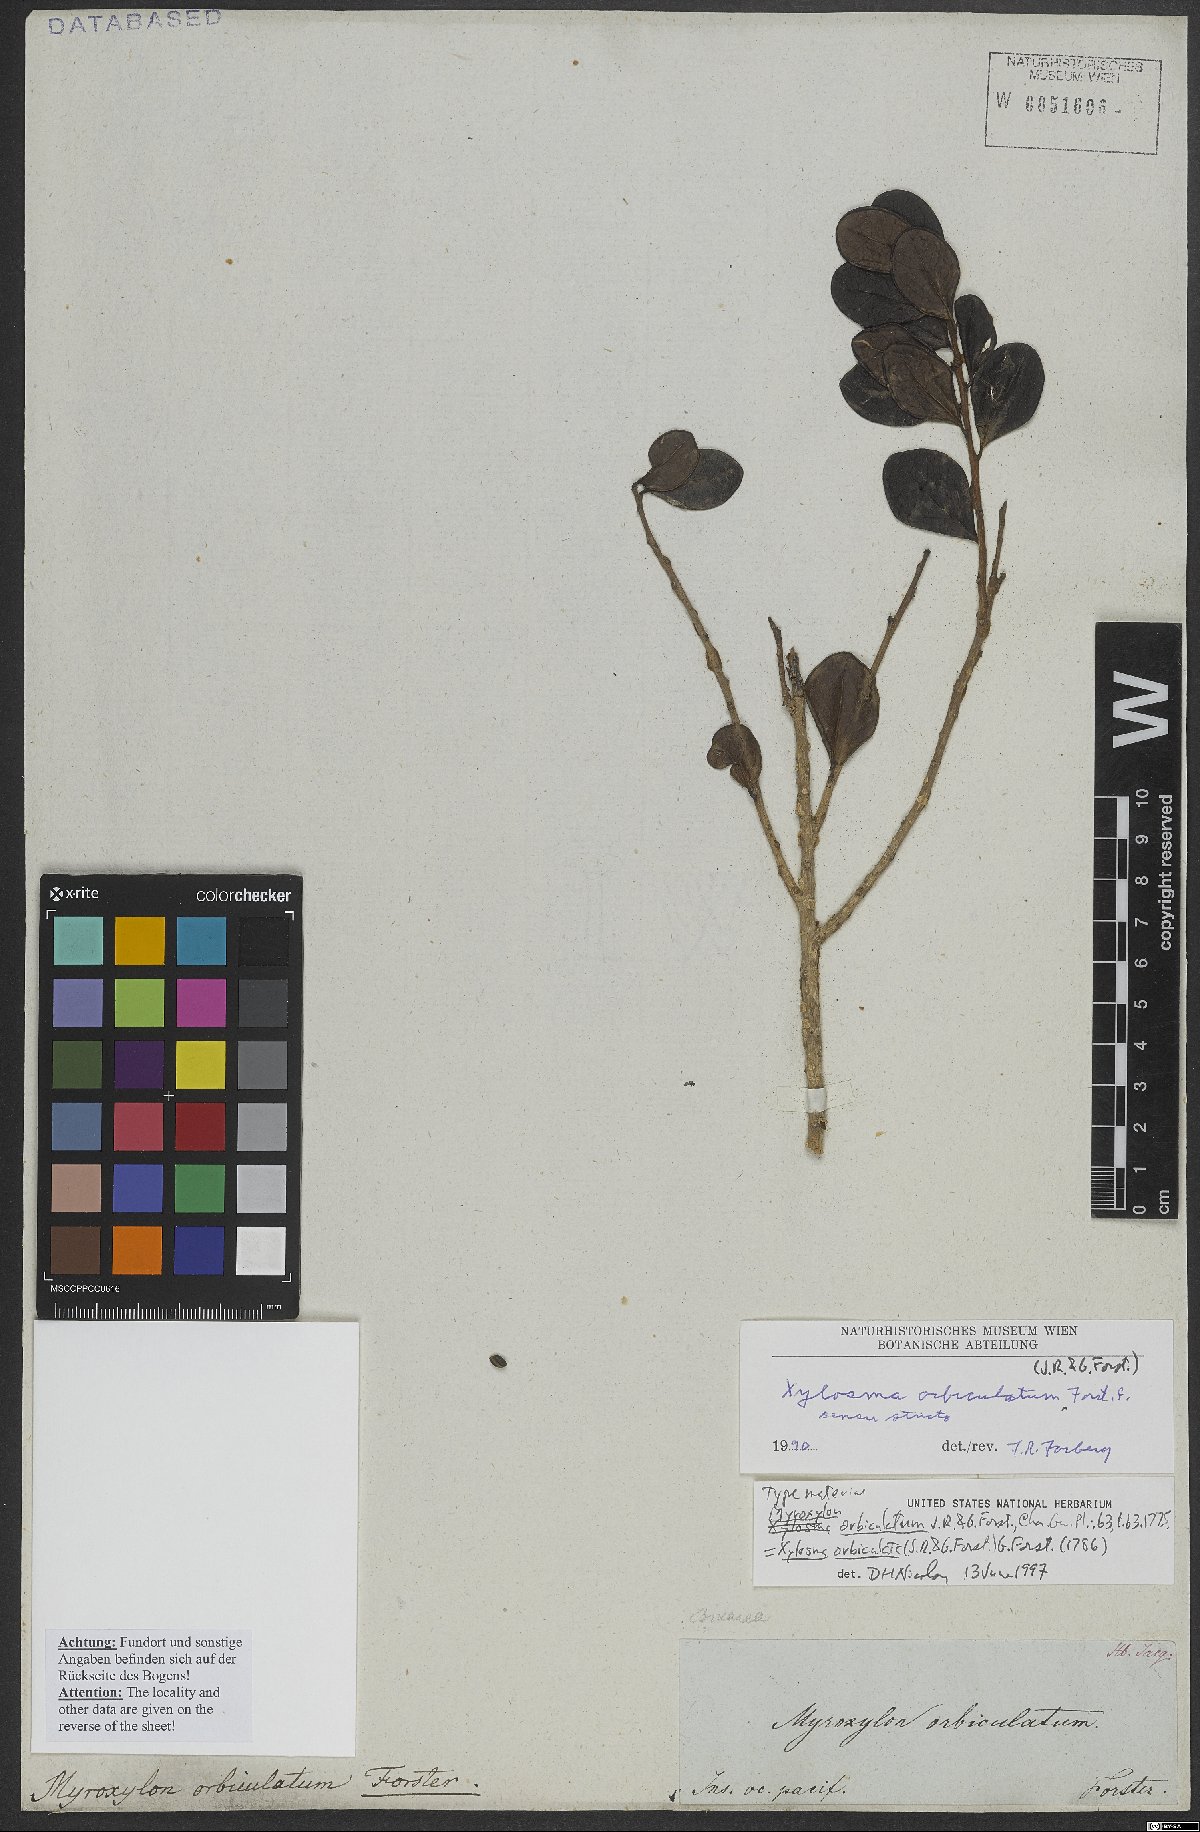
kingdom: Plantae
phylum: Tracheophyta
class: Magnoliopsida
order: Malpighiales
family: Salicaceae
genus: Xylosma
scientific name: Xylosma orbiculata
